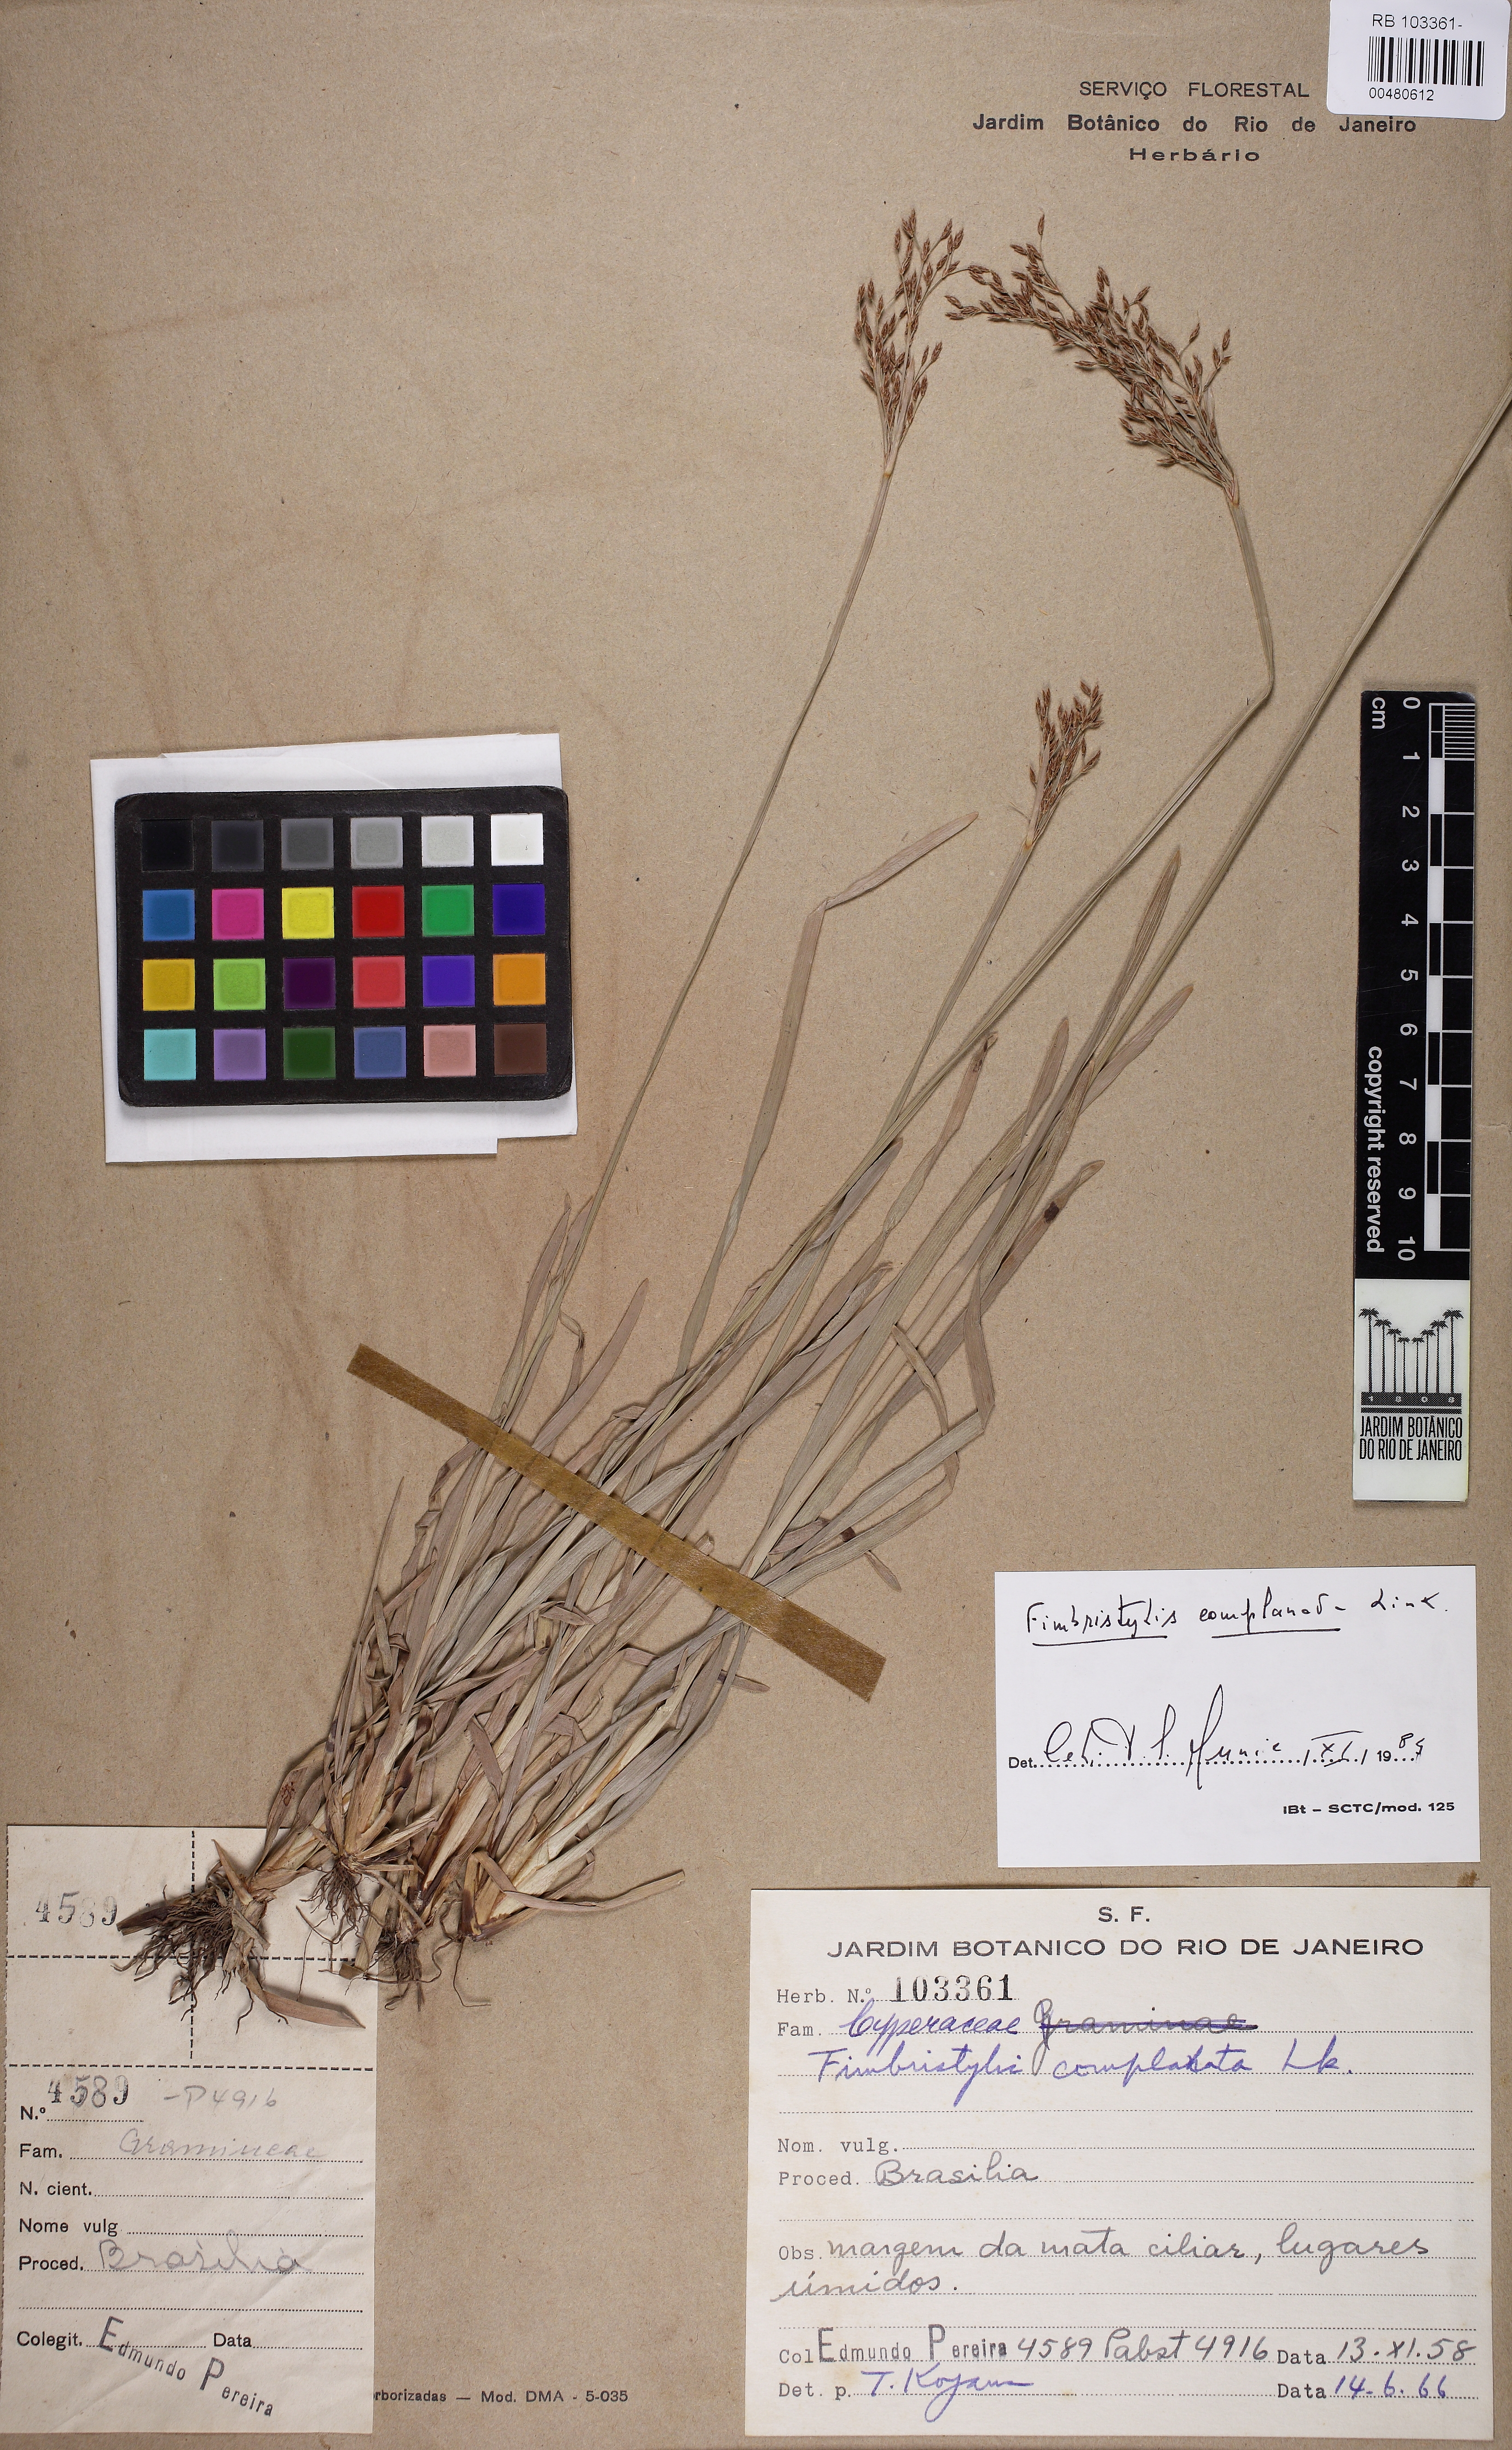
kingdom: Plantae
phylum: Tracheophyta
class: Liliopsida
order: Poales
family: Cyperaceae
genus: Fimbristylis
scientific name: Fimbristylis complanata
